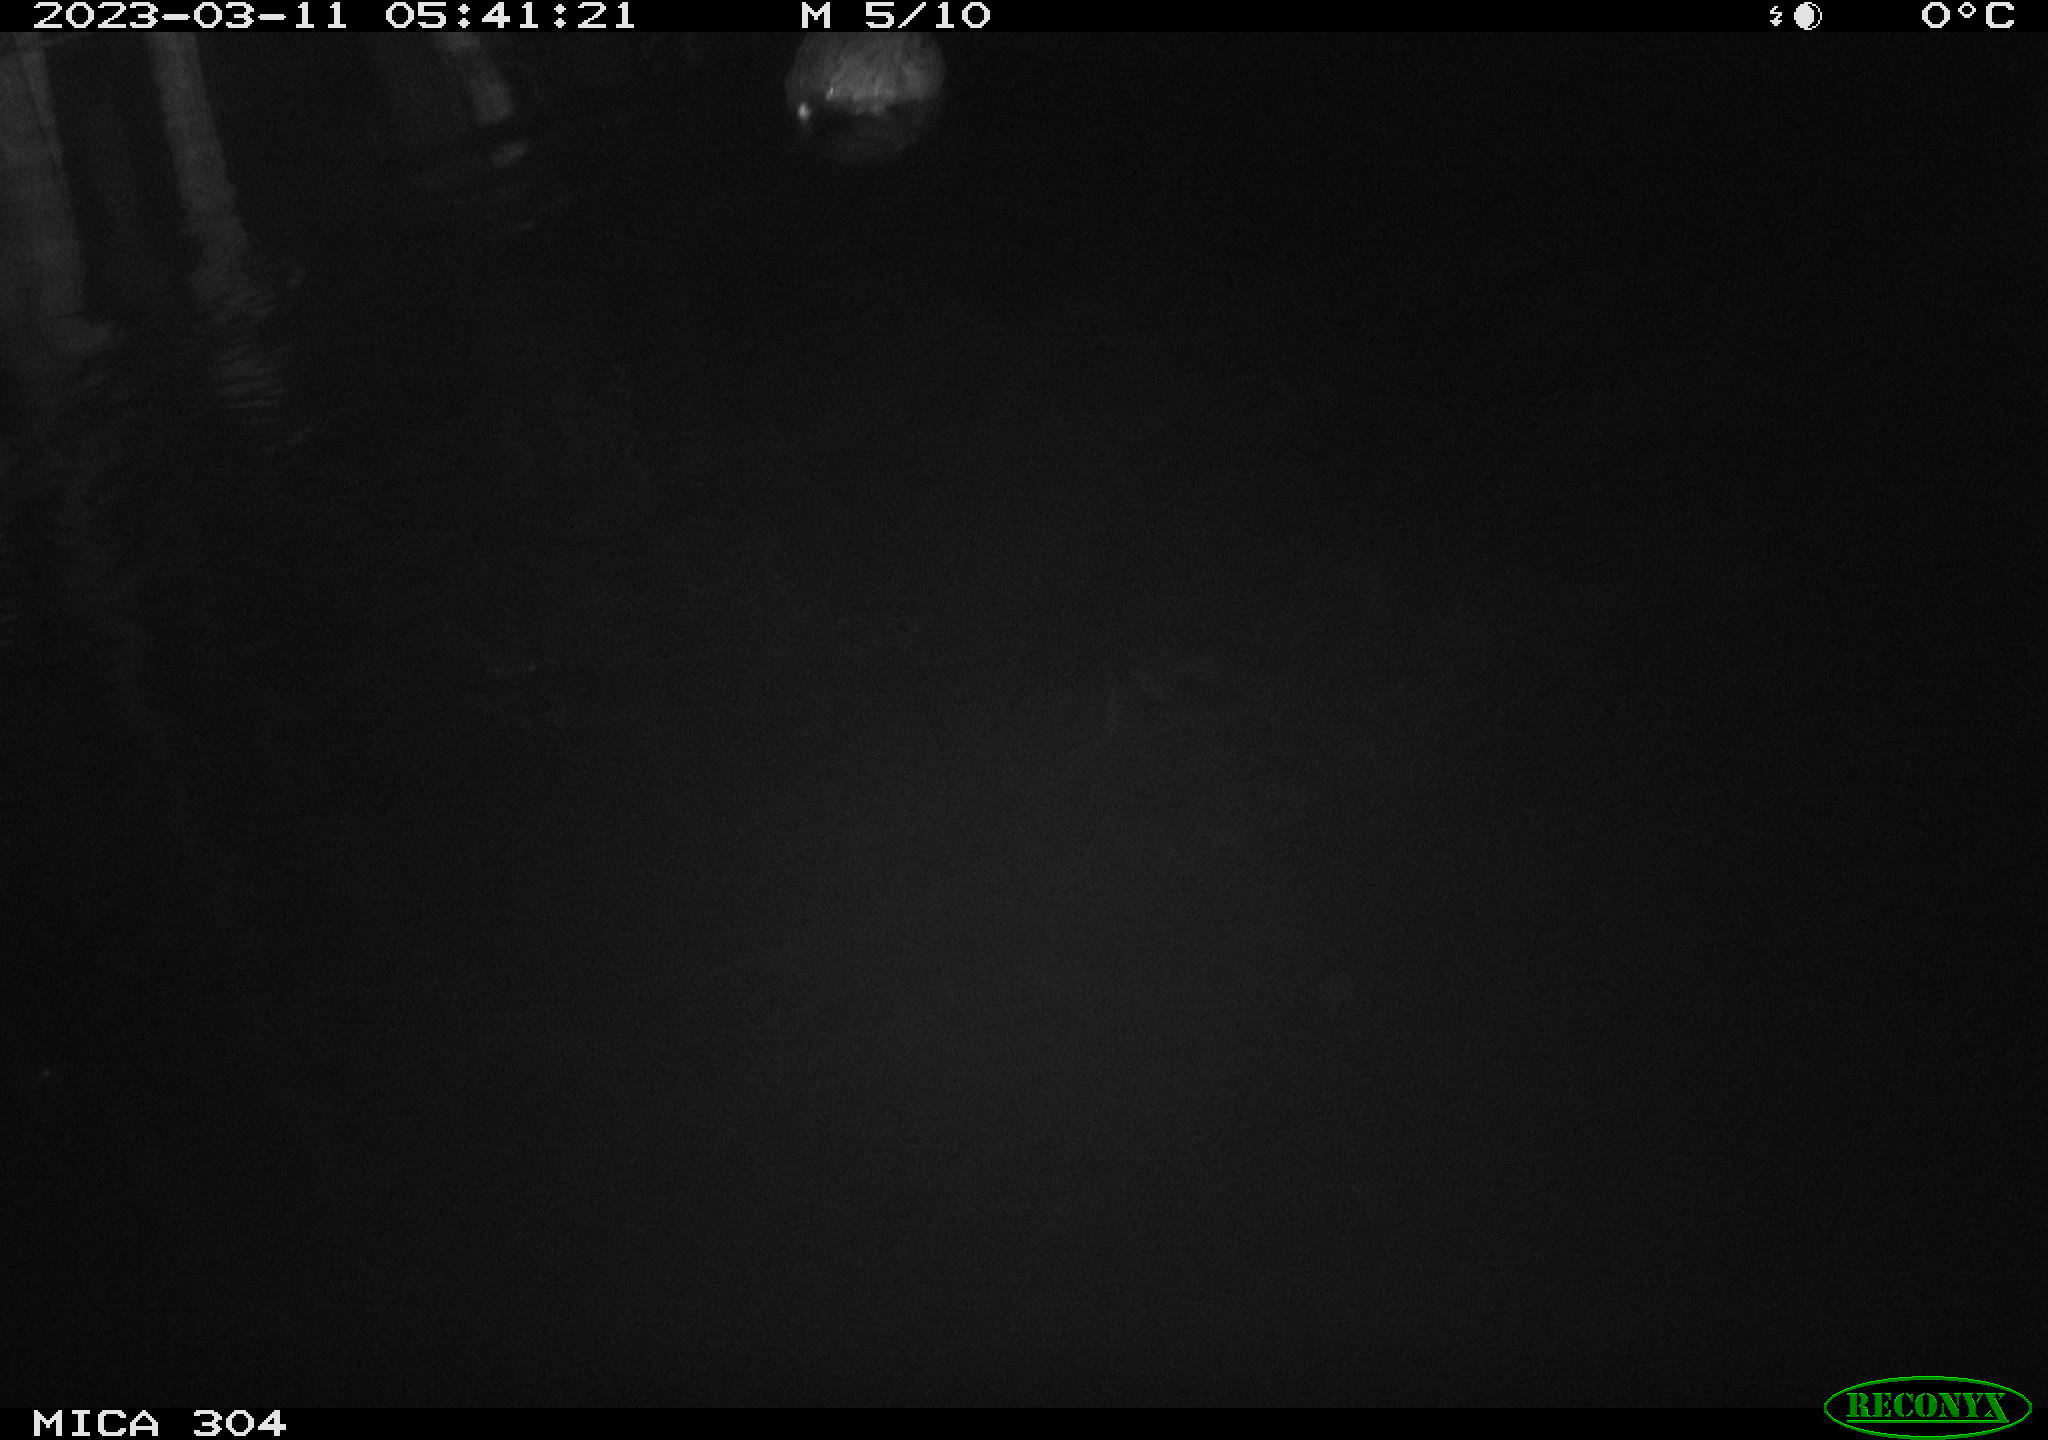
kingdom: Animalia
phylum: Chordata
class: Aves
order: Anseriformes
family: Anatidae
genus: Anas
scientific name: Anas
